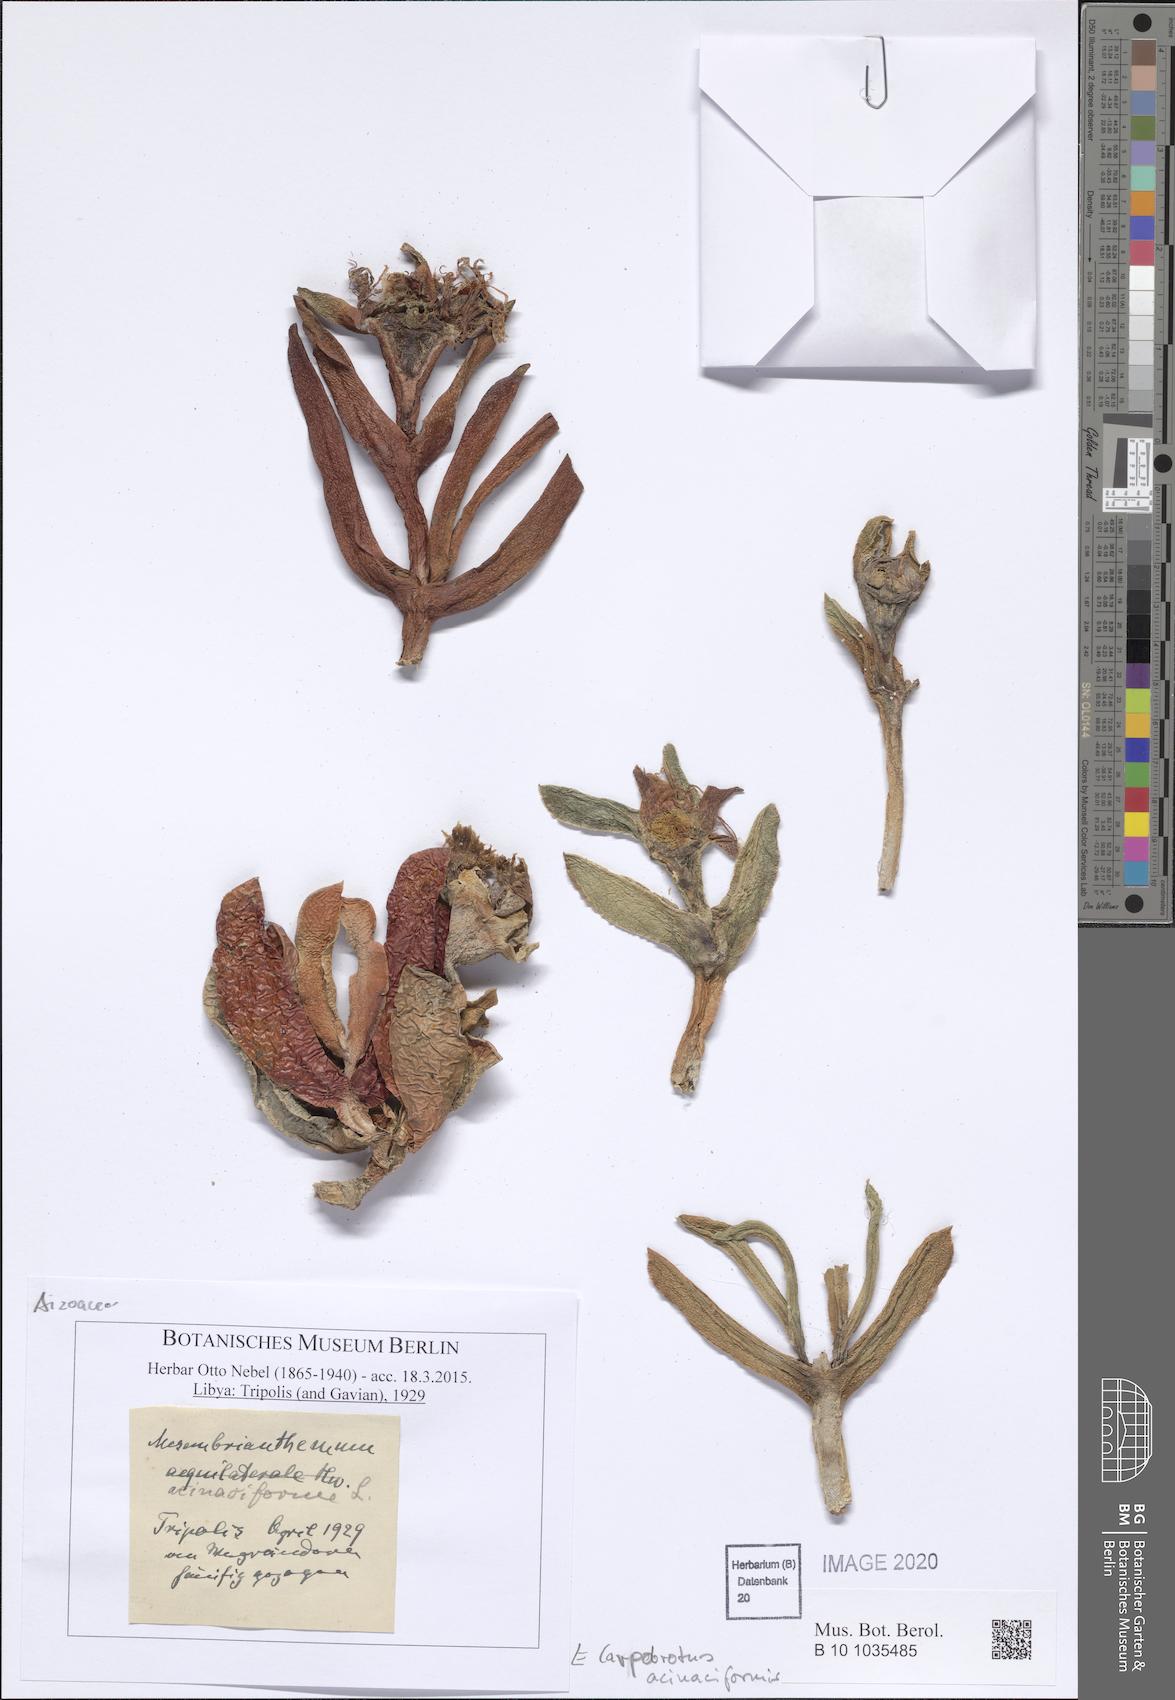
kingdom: Plantae
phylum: Tracheophyta
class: Magnoliopsida
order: Caryophyllales
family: Aizoaceae
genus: Carpobrotus
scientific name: Carpobrotus acinaciformis
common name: Sally-my-handsome
